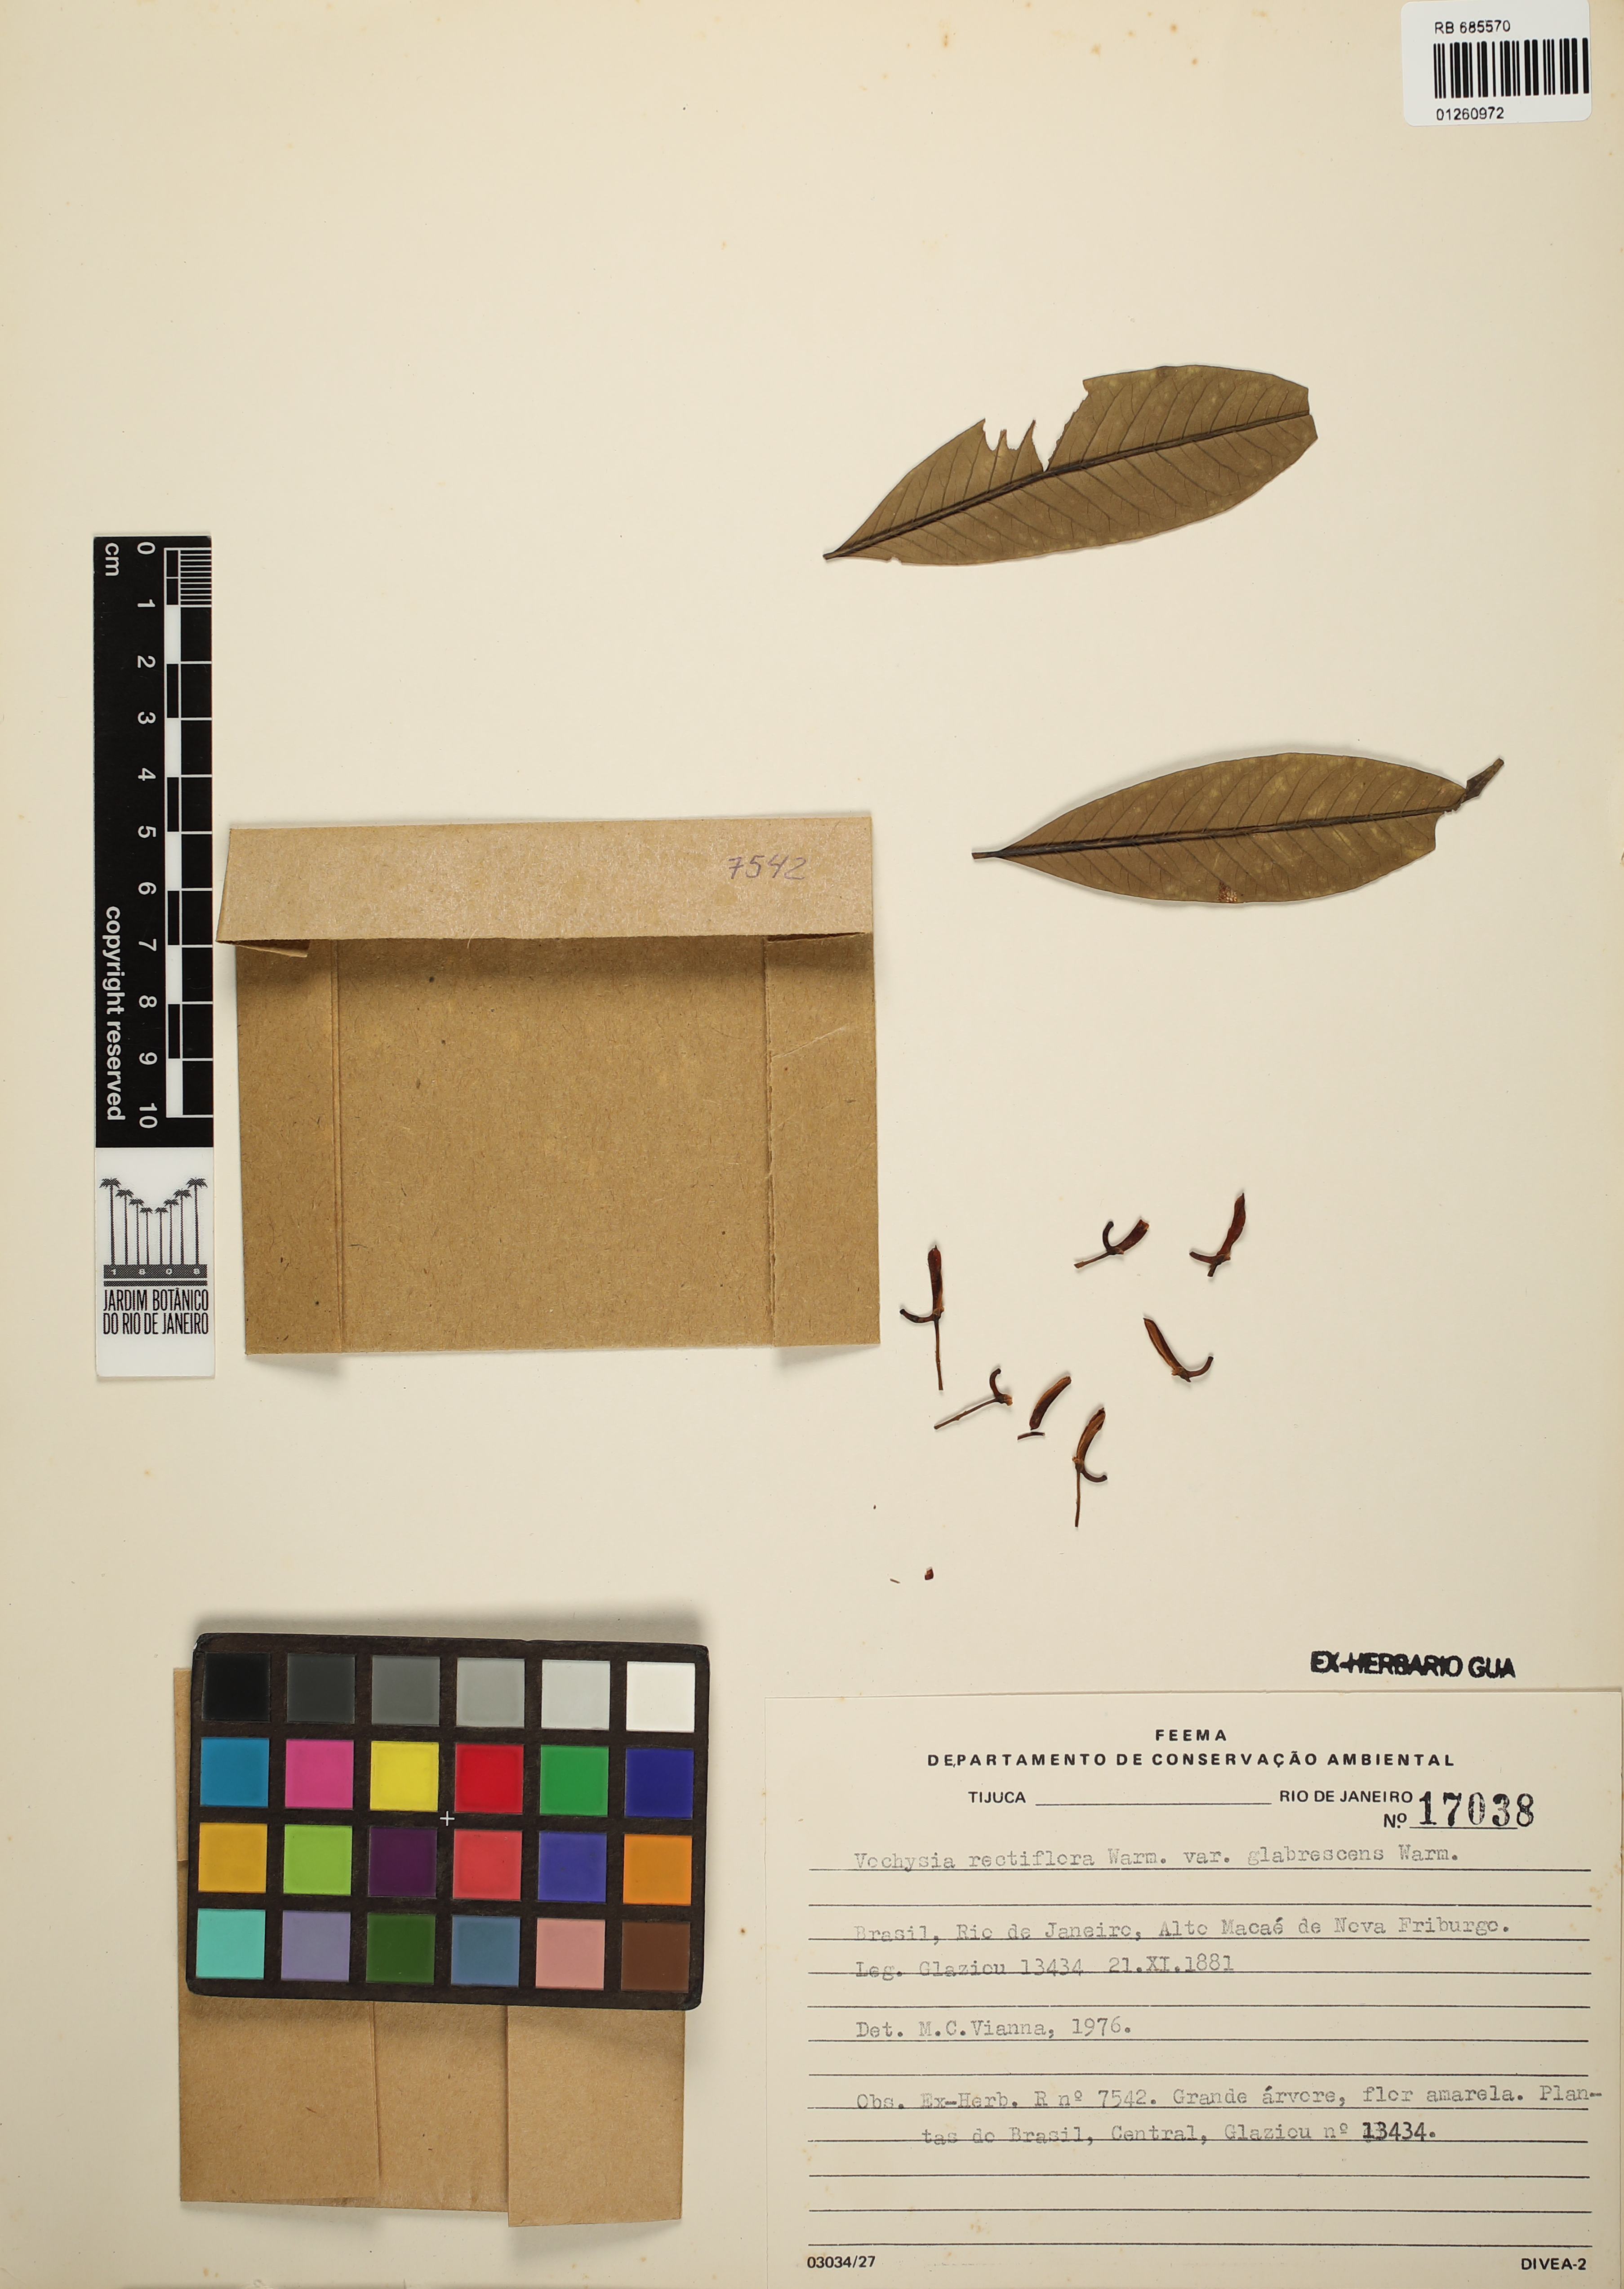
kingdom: Plantae
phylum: Tracheophyta
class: Magnoliopsida
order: Myrtales
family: Vochysiaceae
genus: Vochysia
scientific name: Vochysia rectiflora
